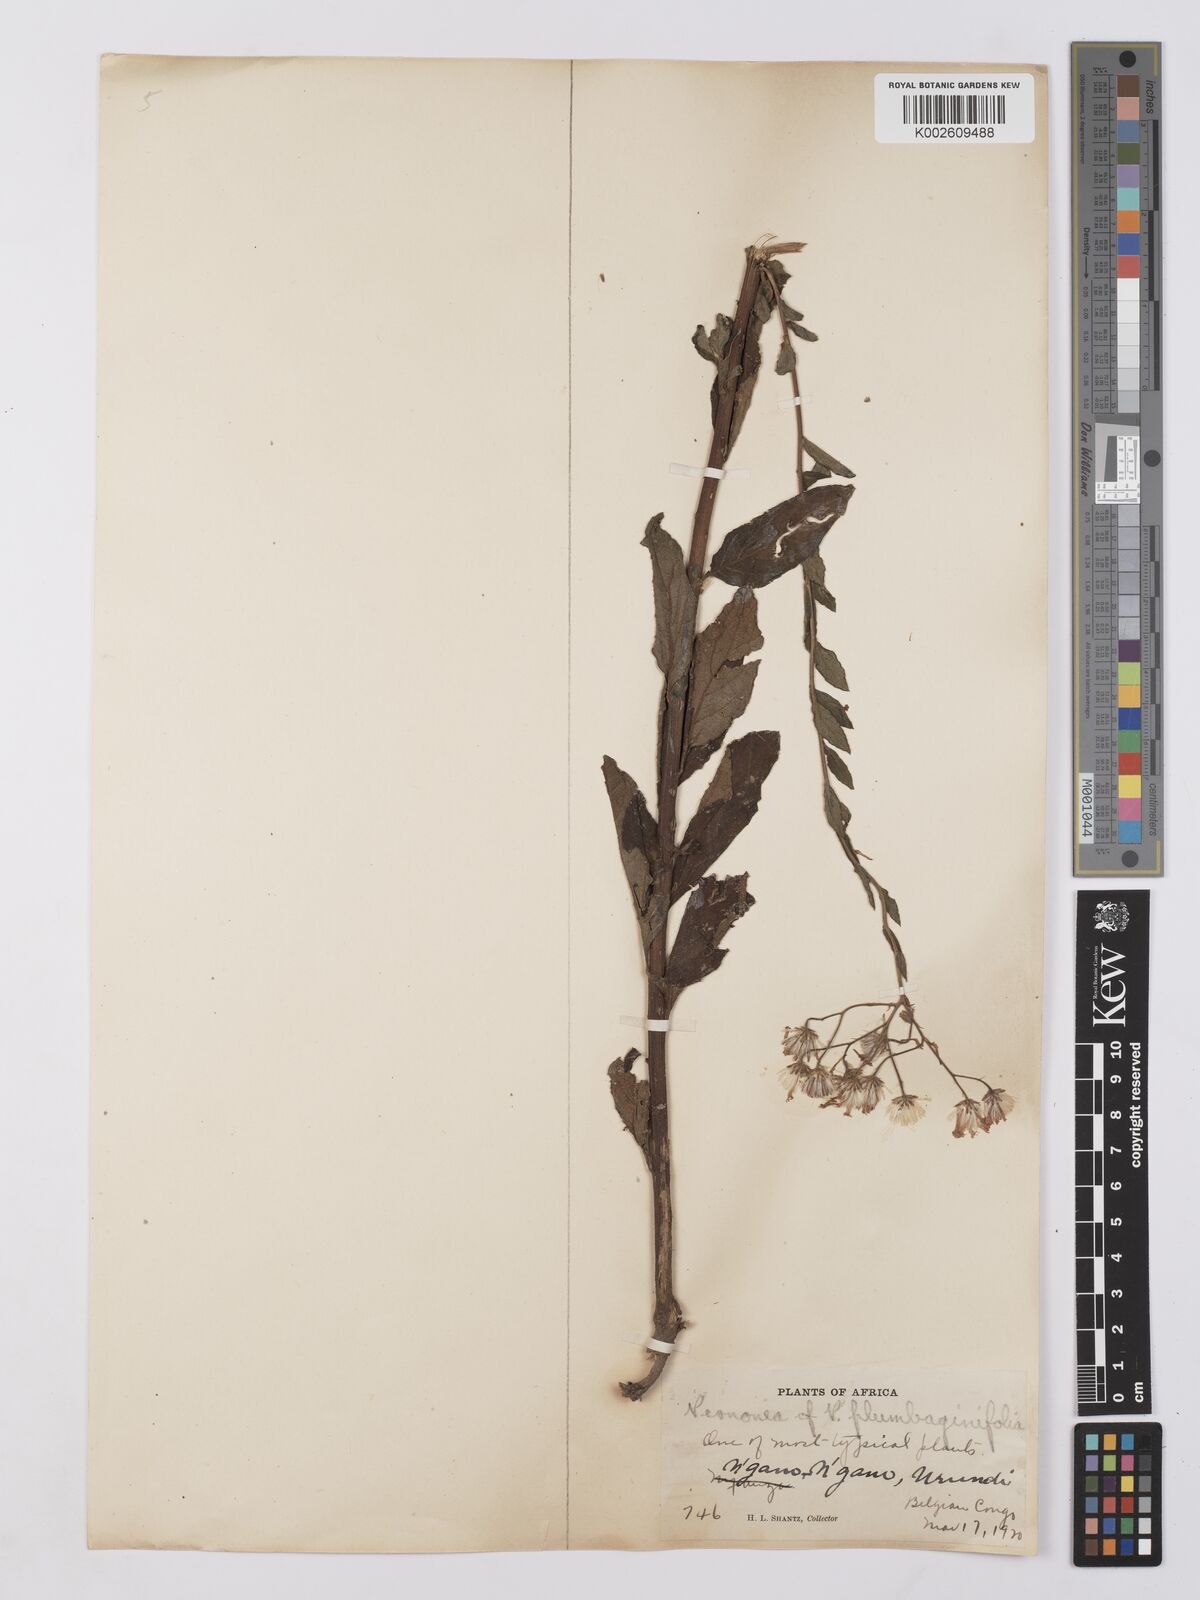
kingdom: Plantae
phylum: Tracheophyta
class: Magnoliopsida
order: Asterales
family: Asteraceae
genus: Vernonia
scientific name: Vernonia
